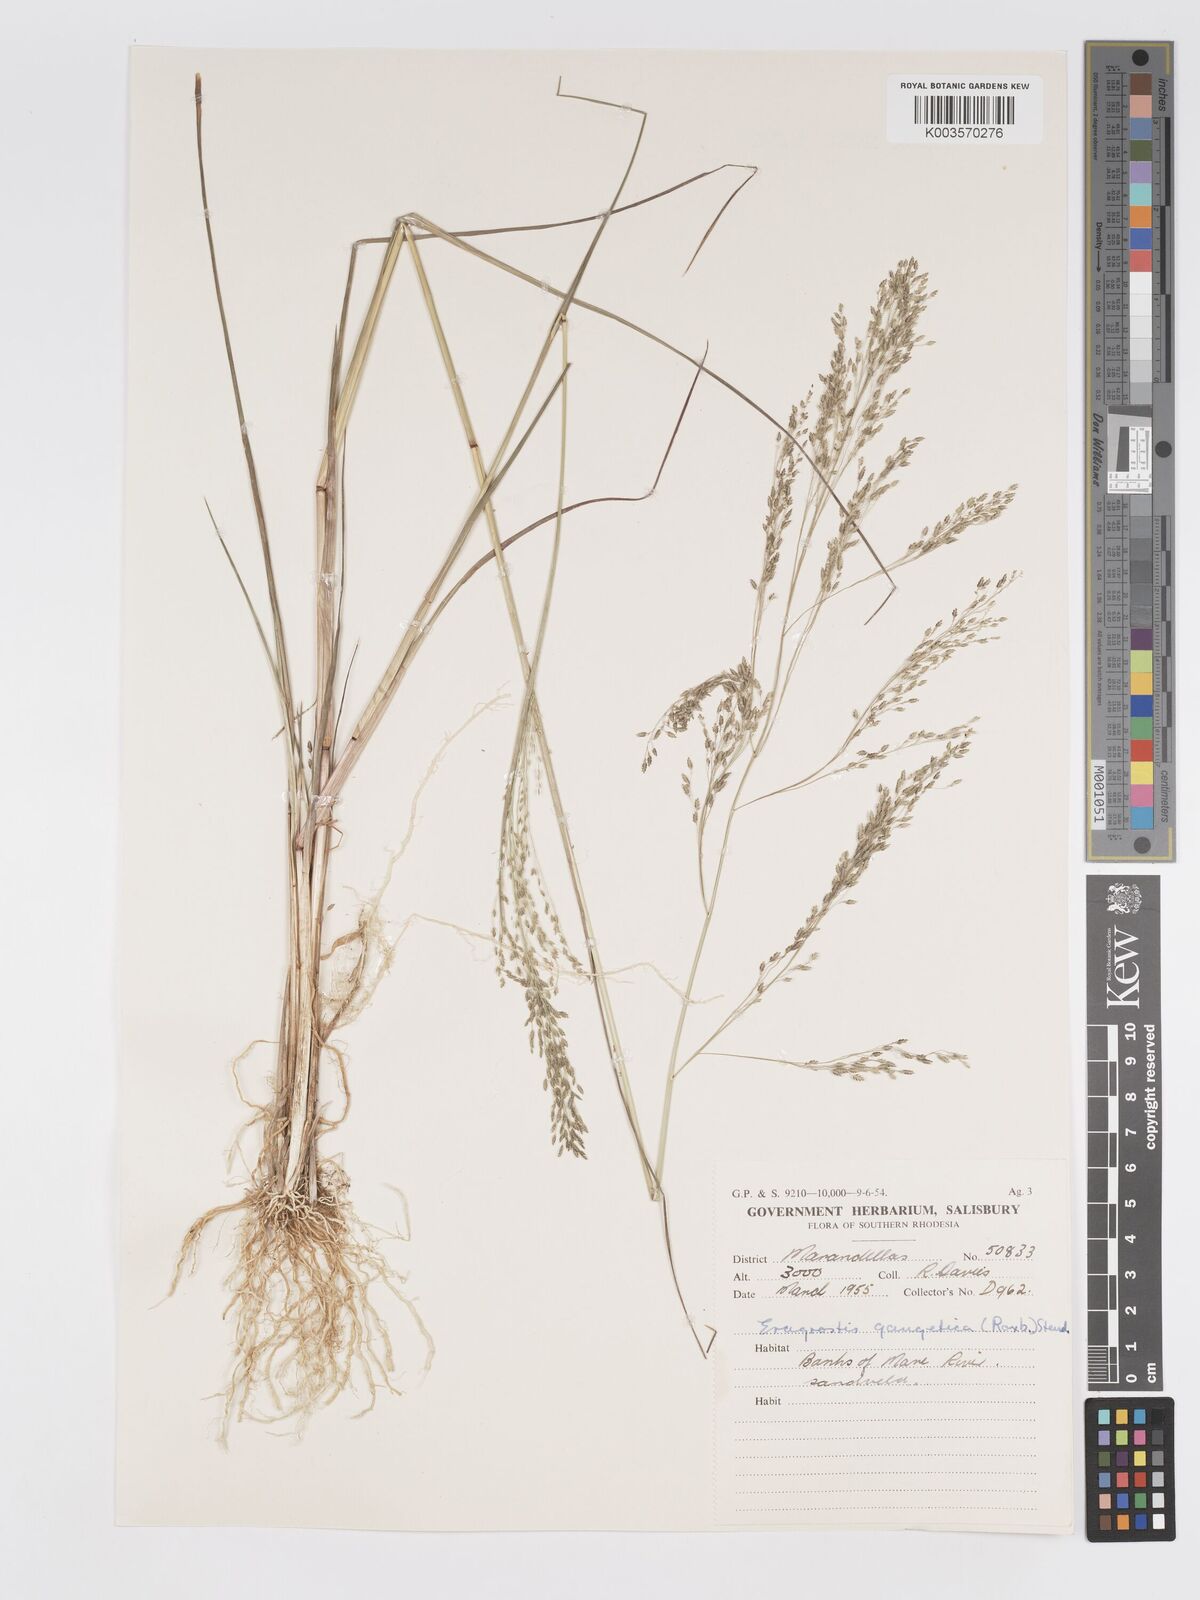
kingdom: Plantae
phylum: Tracheophyta
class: Liliopsida
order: Poales
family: Poaceae
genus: Eragrostis
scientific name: Eragrostis gangetica
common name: Slimflower lovegrass
